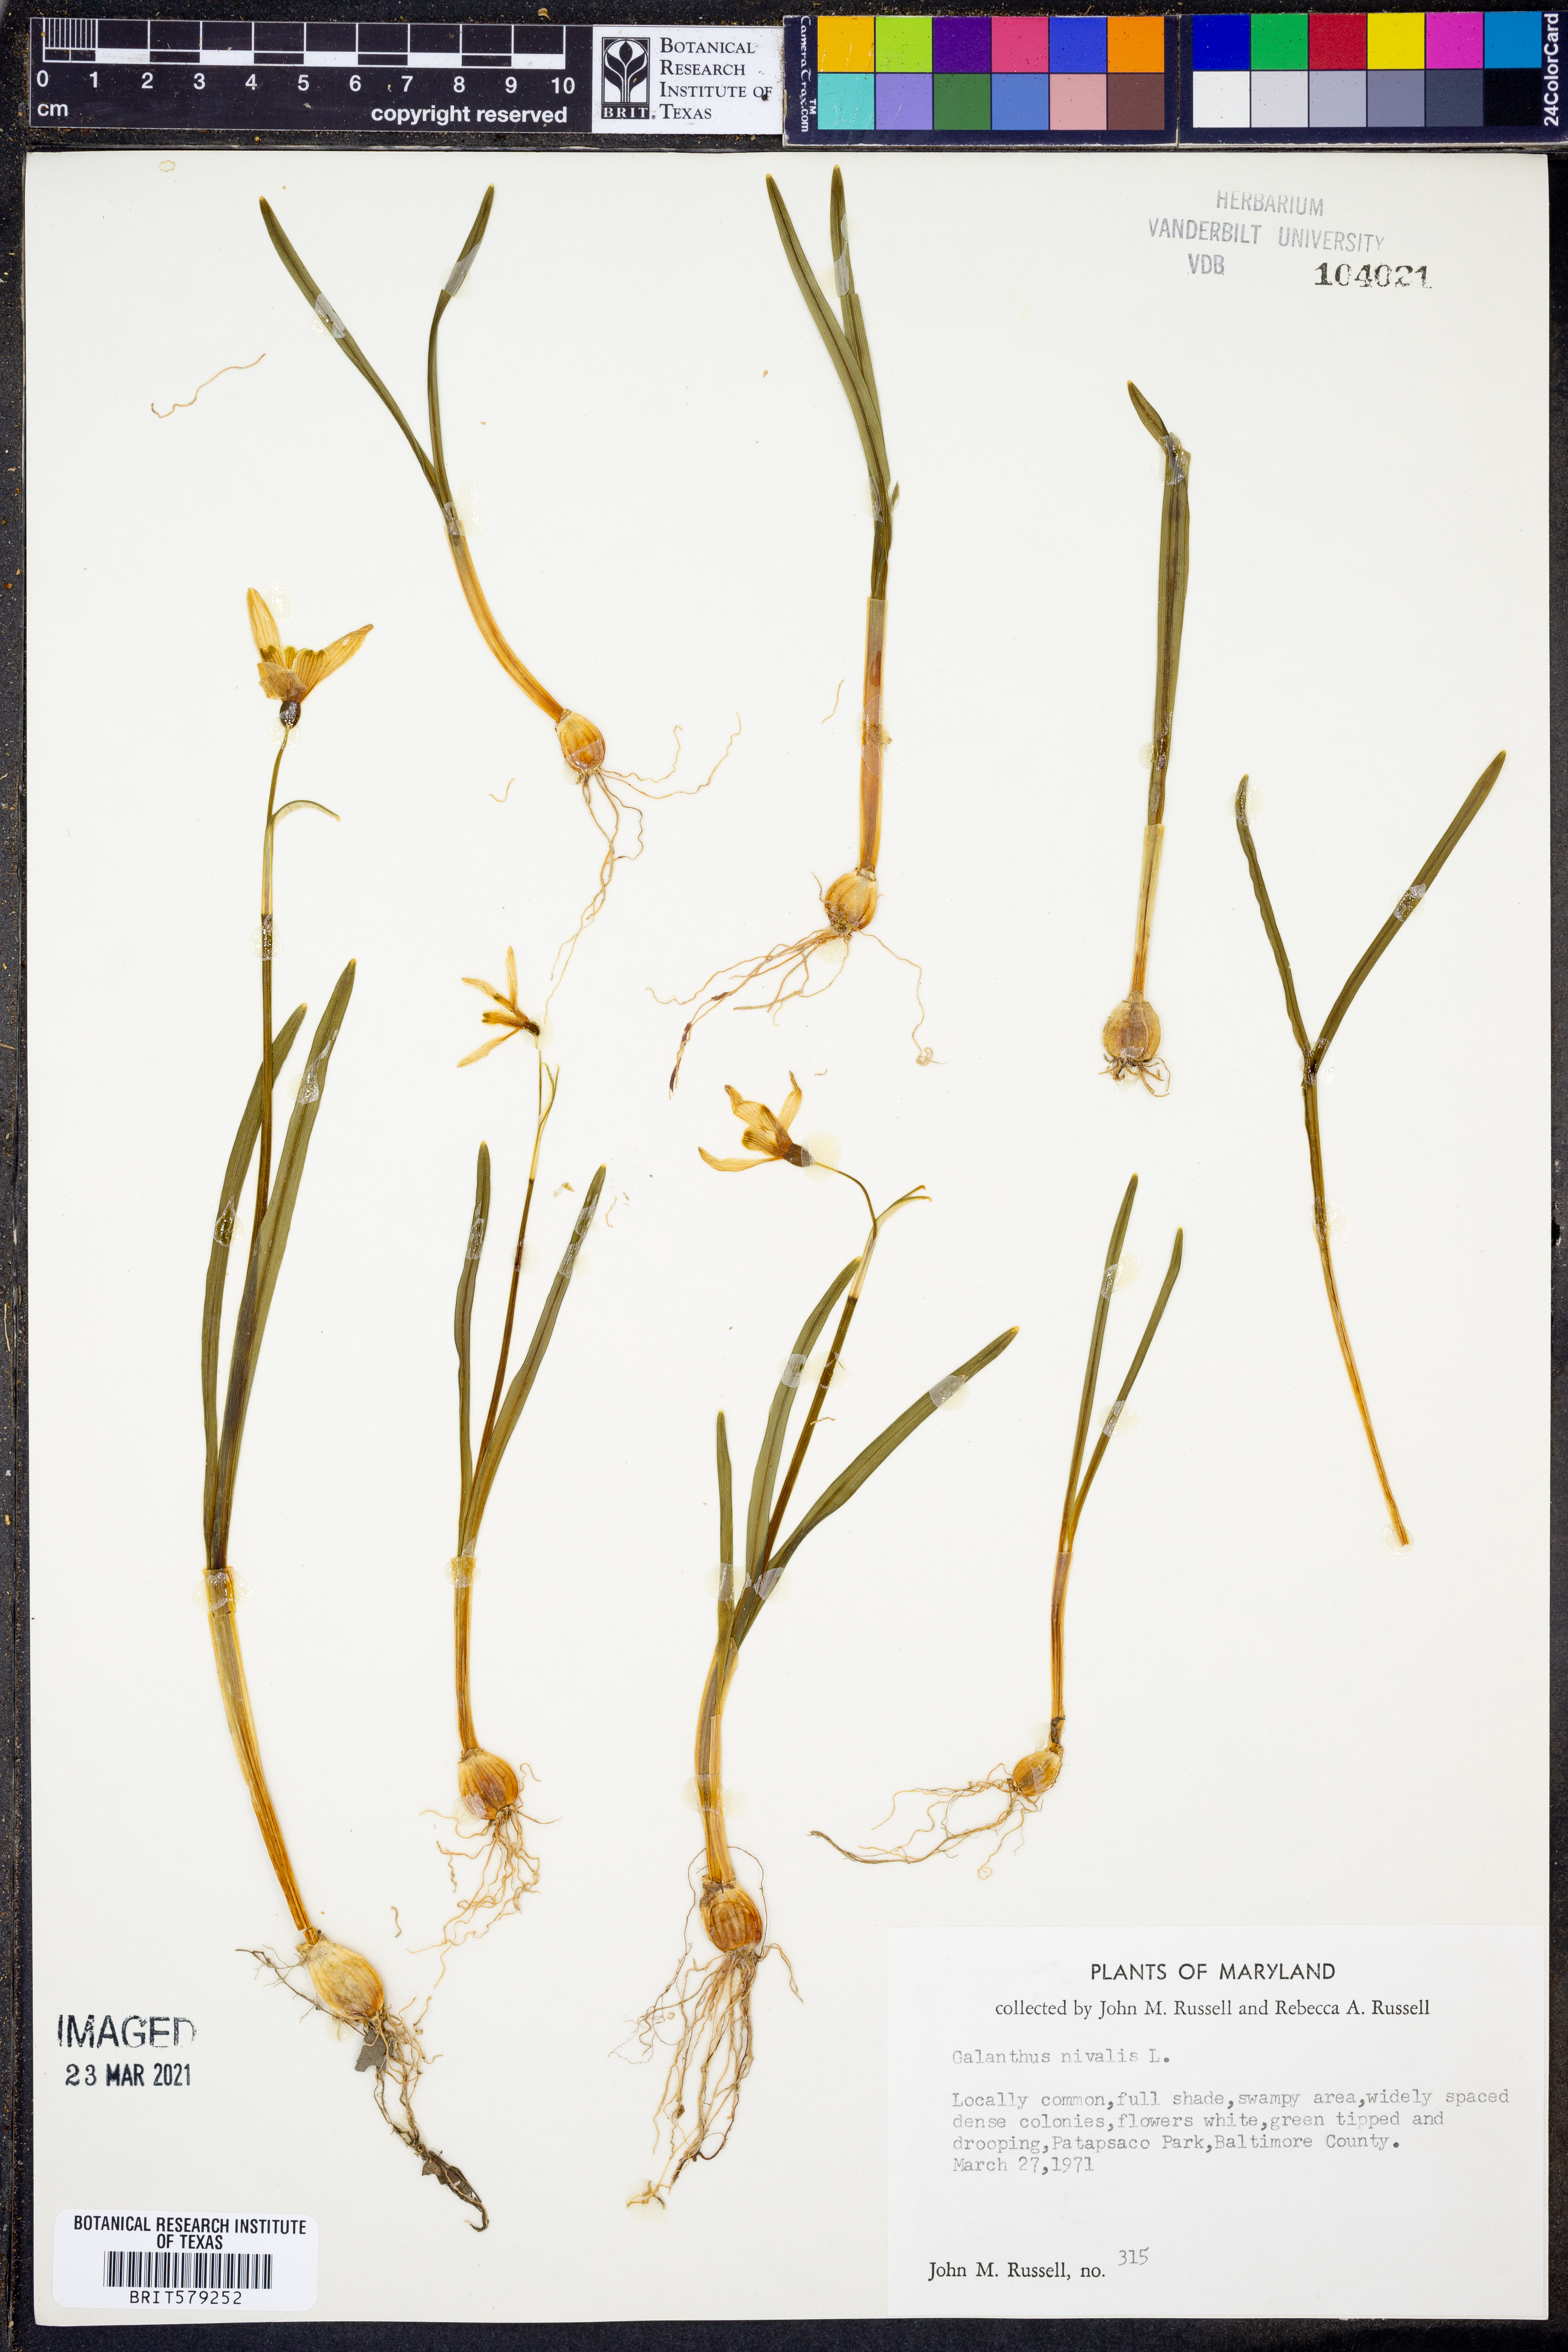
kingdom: Plantae
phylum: Tracheophyta
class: Liliopsida
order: Asparagales
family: Amaryllidaceae
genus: Galanthus
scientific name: Galanthus nivalis
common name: Snowdrop
